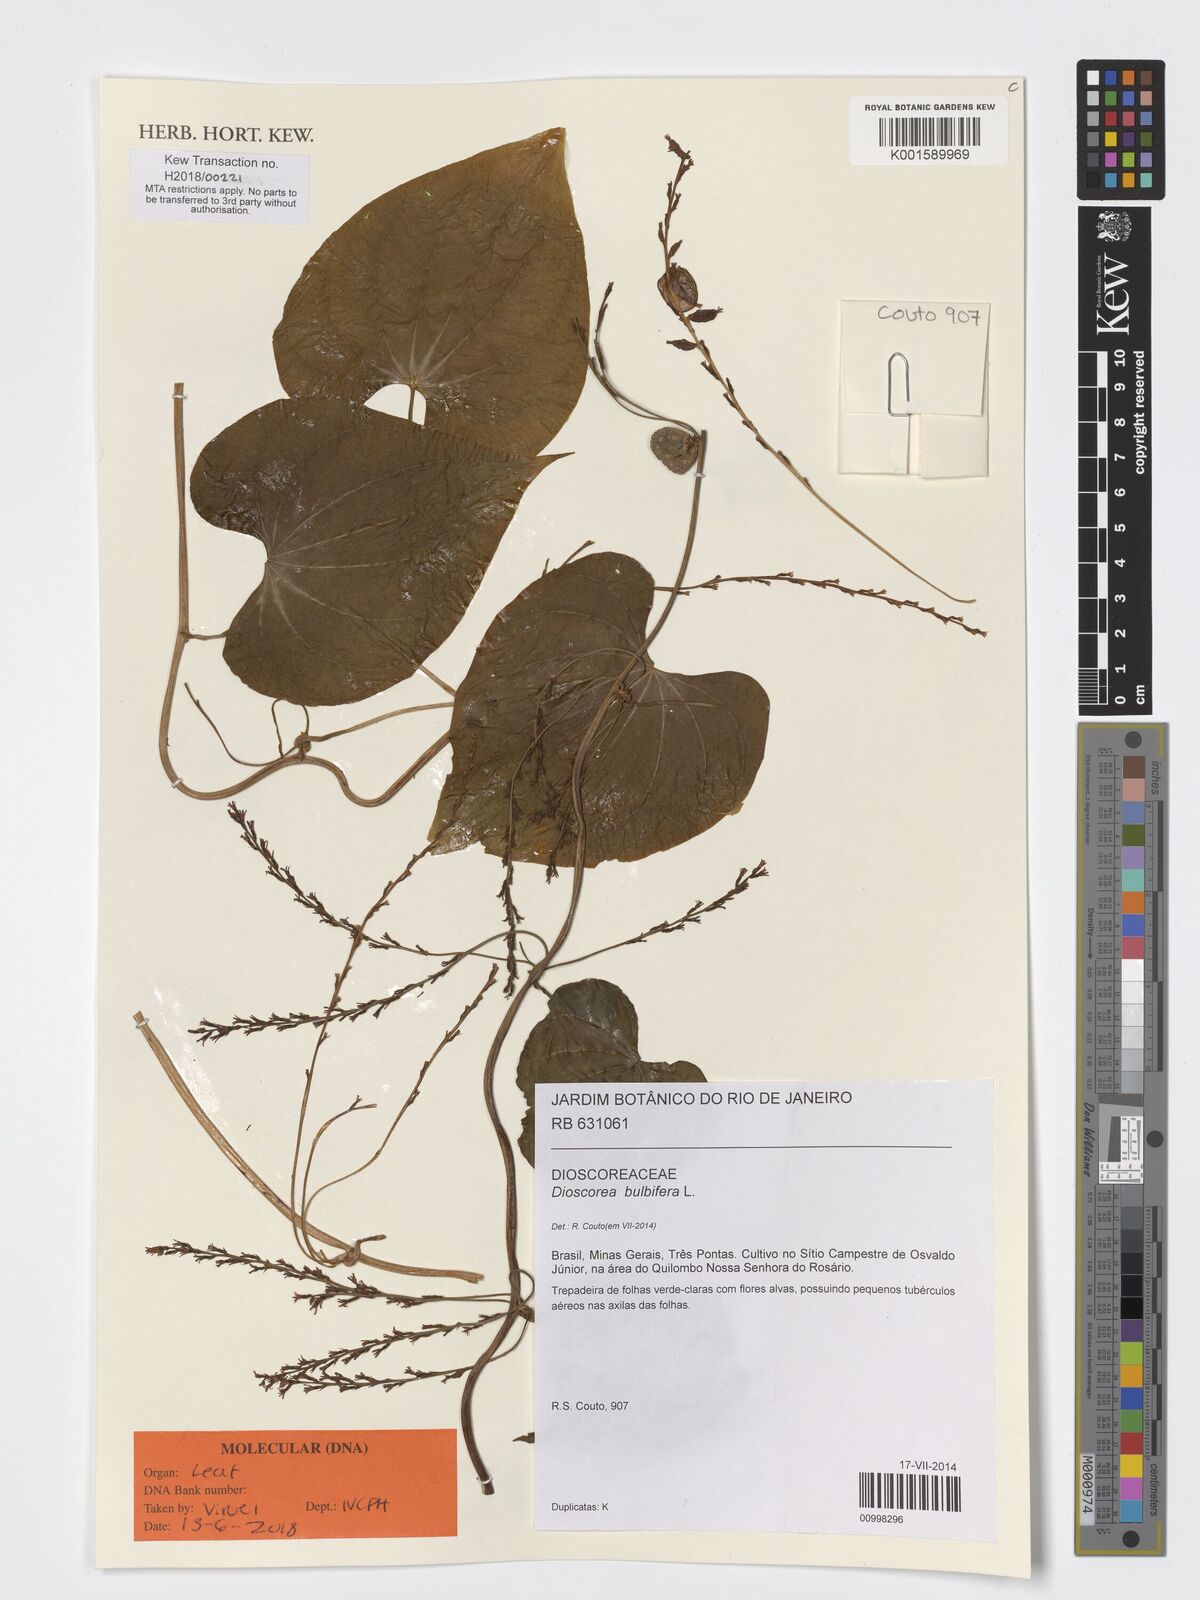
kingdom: Plantae
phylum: Tracheophyta
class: Liliopsida
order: Dioscoreales
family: Dioscoreaceae
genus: Dioscorea
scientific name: Dioscorea bulbifera
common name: Air yam
